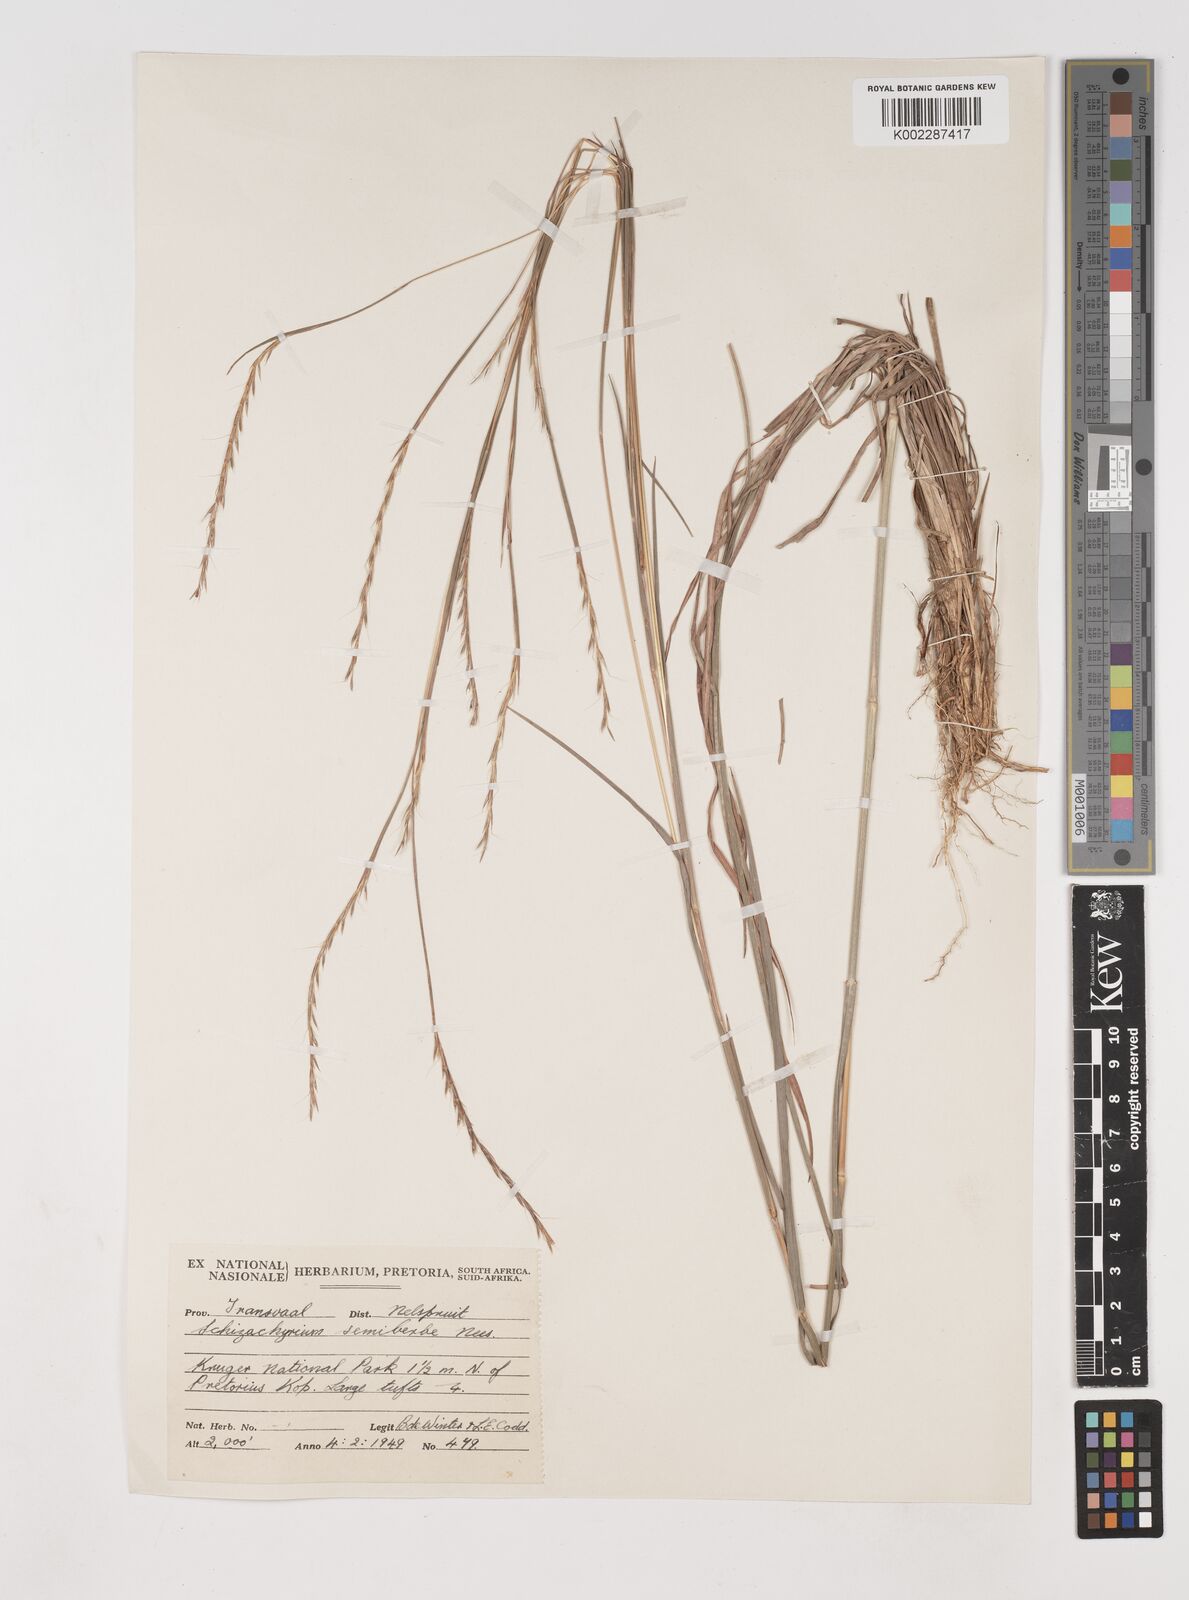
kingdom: Plantae
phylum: Tracheophyta
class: Liliopsida
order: Poales
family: Poaceae
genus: Schizachyrium
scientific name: Schizachyrium sanguineum
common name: Crimson bluestem
